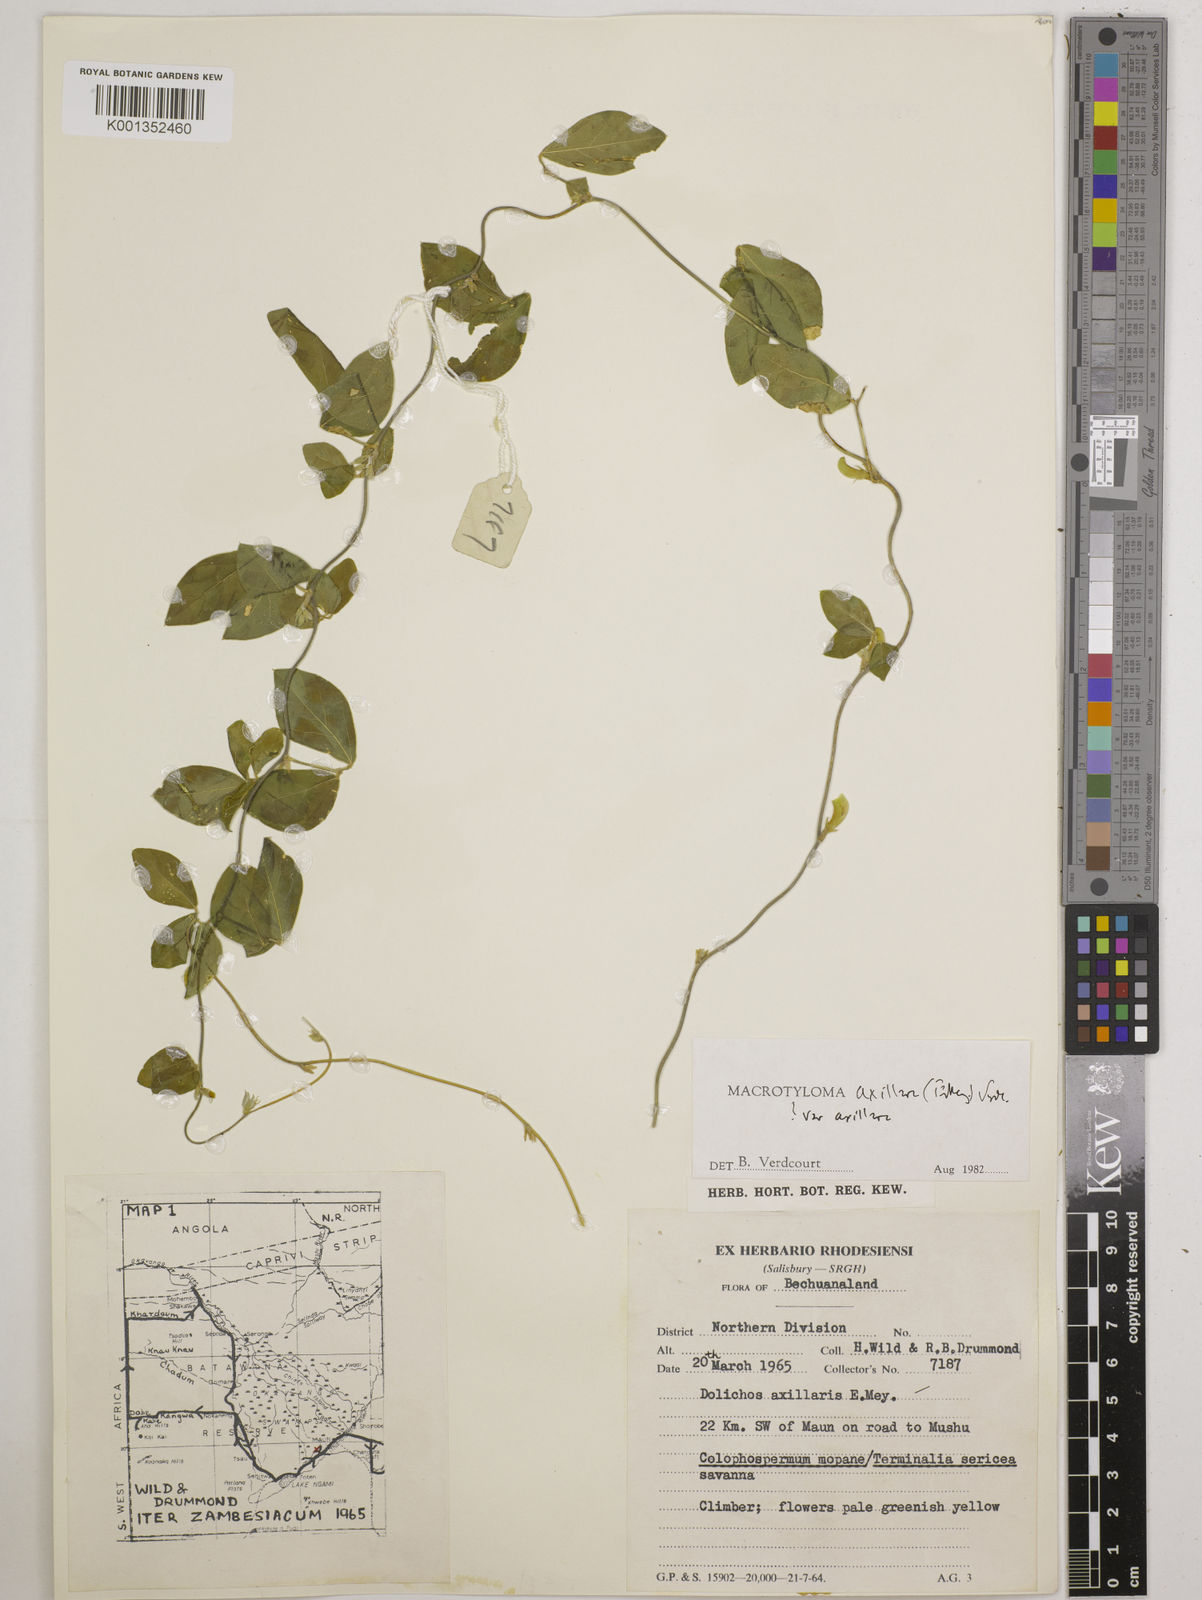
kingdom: Plantae
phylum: Tracheophyta
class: Magnoliopsida
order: Fabales
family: Fabaceae
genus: Macrotyloma
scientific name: Macrotyloma axillare
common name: Perennial horsegram
